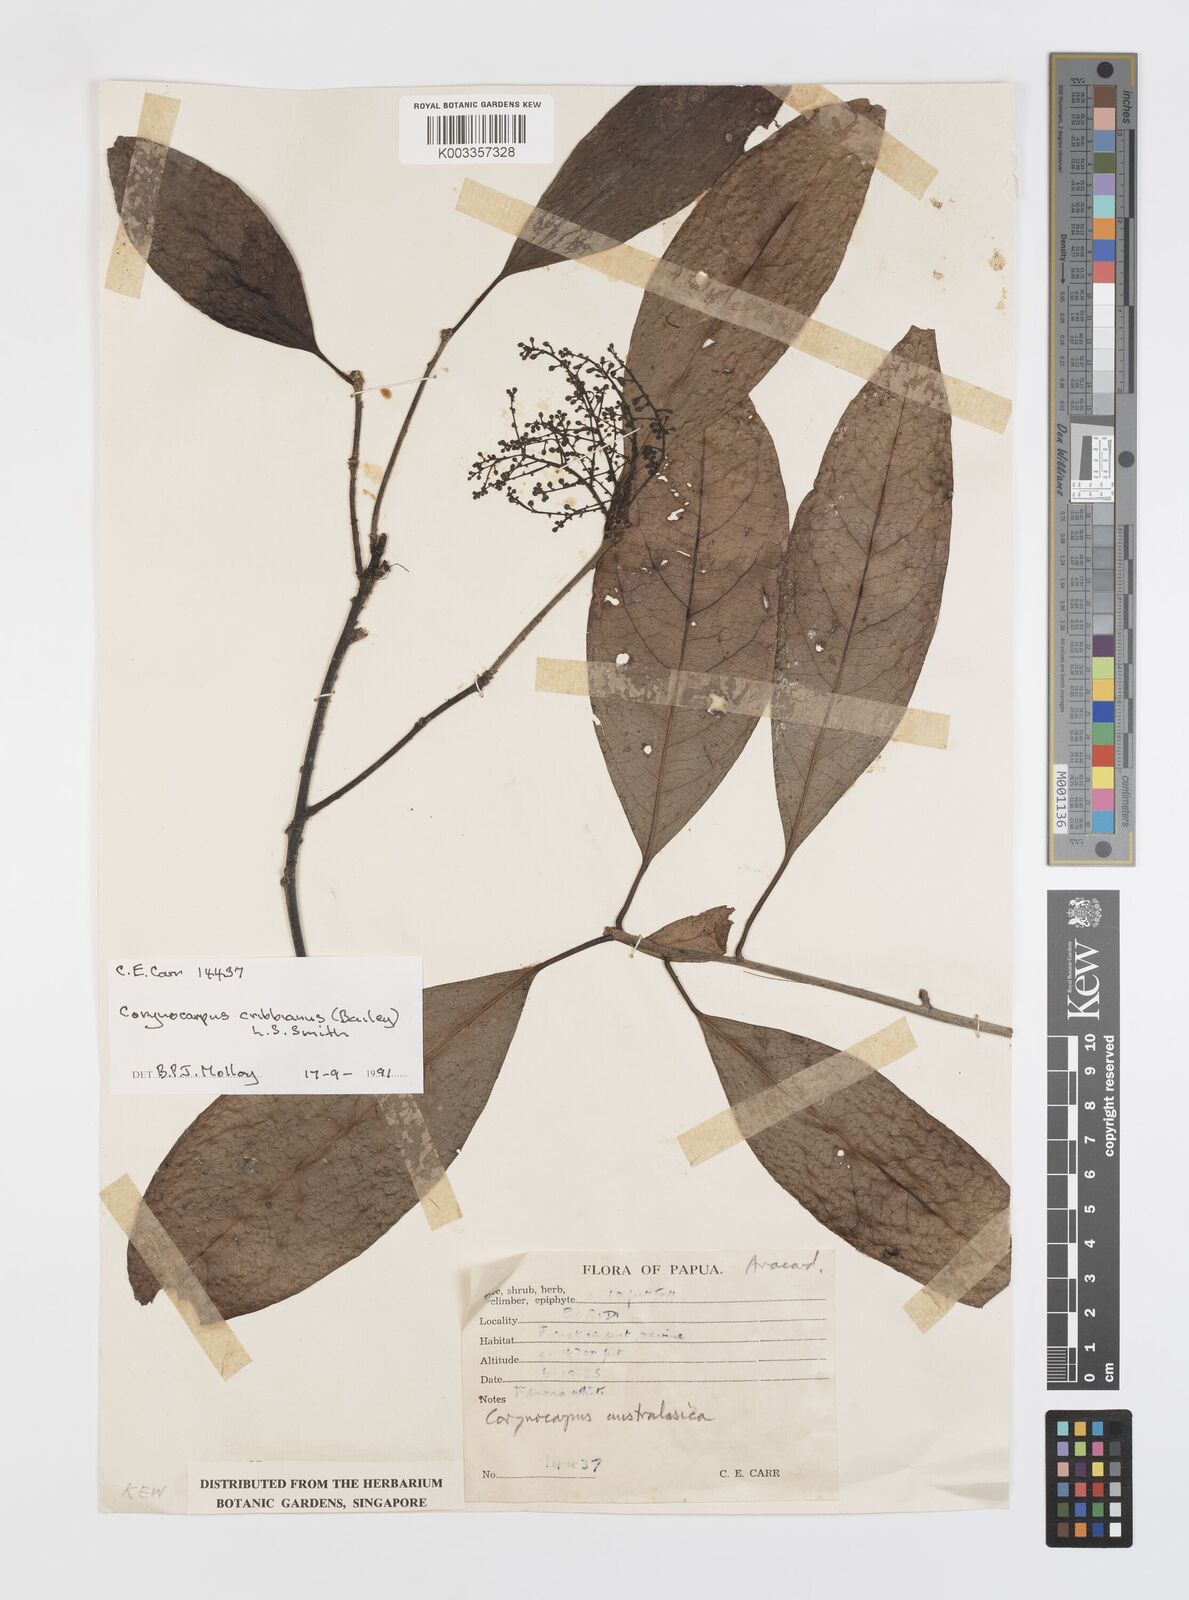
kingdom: Plantae
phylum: Tracheophyta
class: Magnoliopsida
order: Cucurbitales
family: Corynocarpaceae
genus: Corynocarpus
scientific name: Corynocarpus cribbianus
